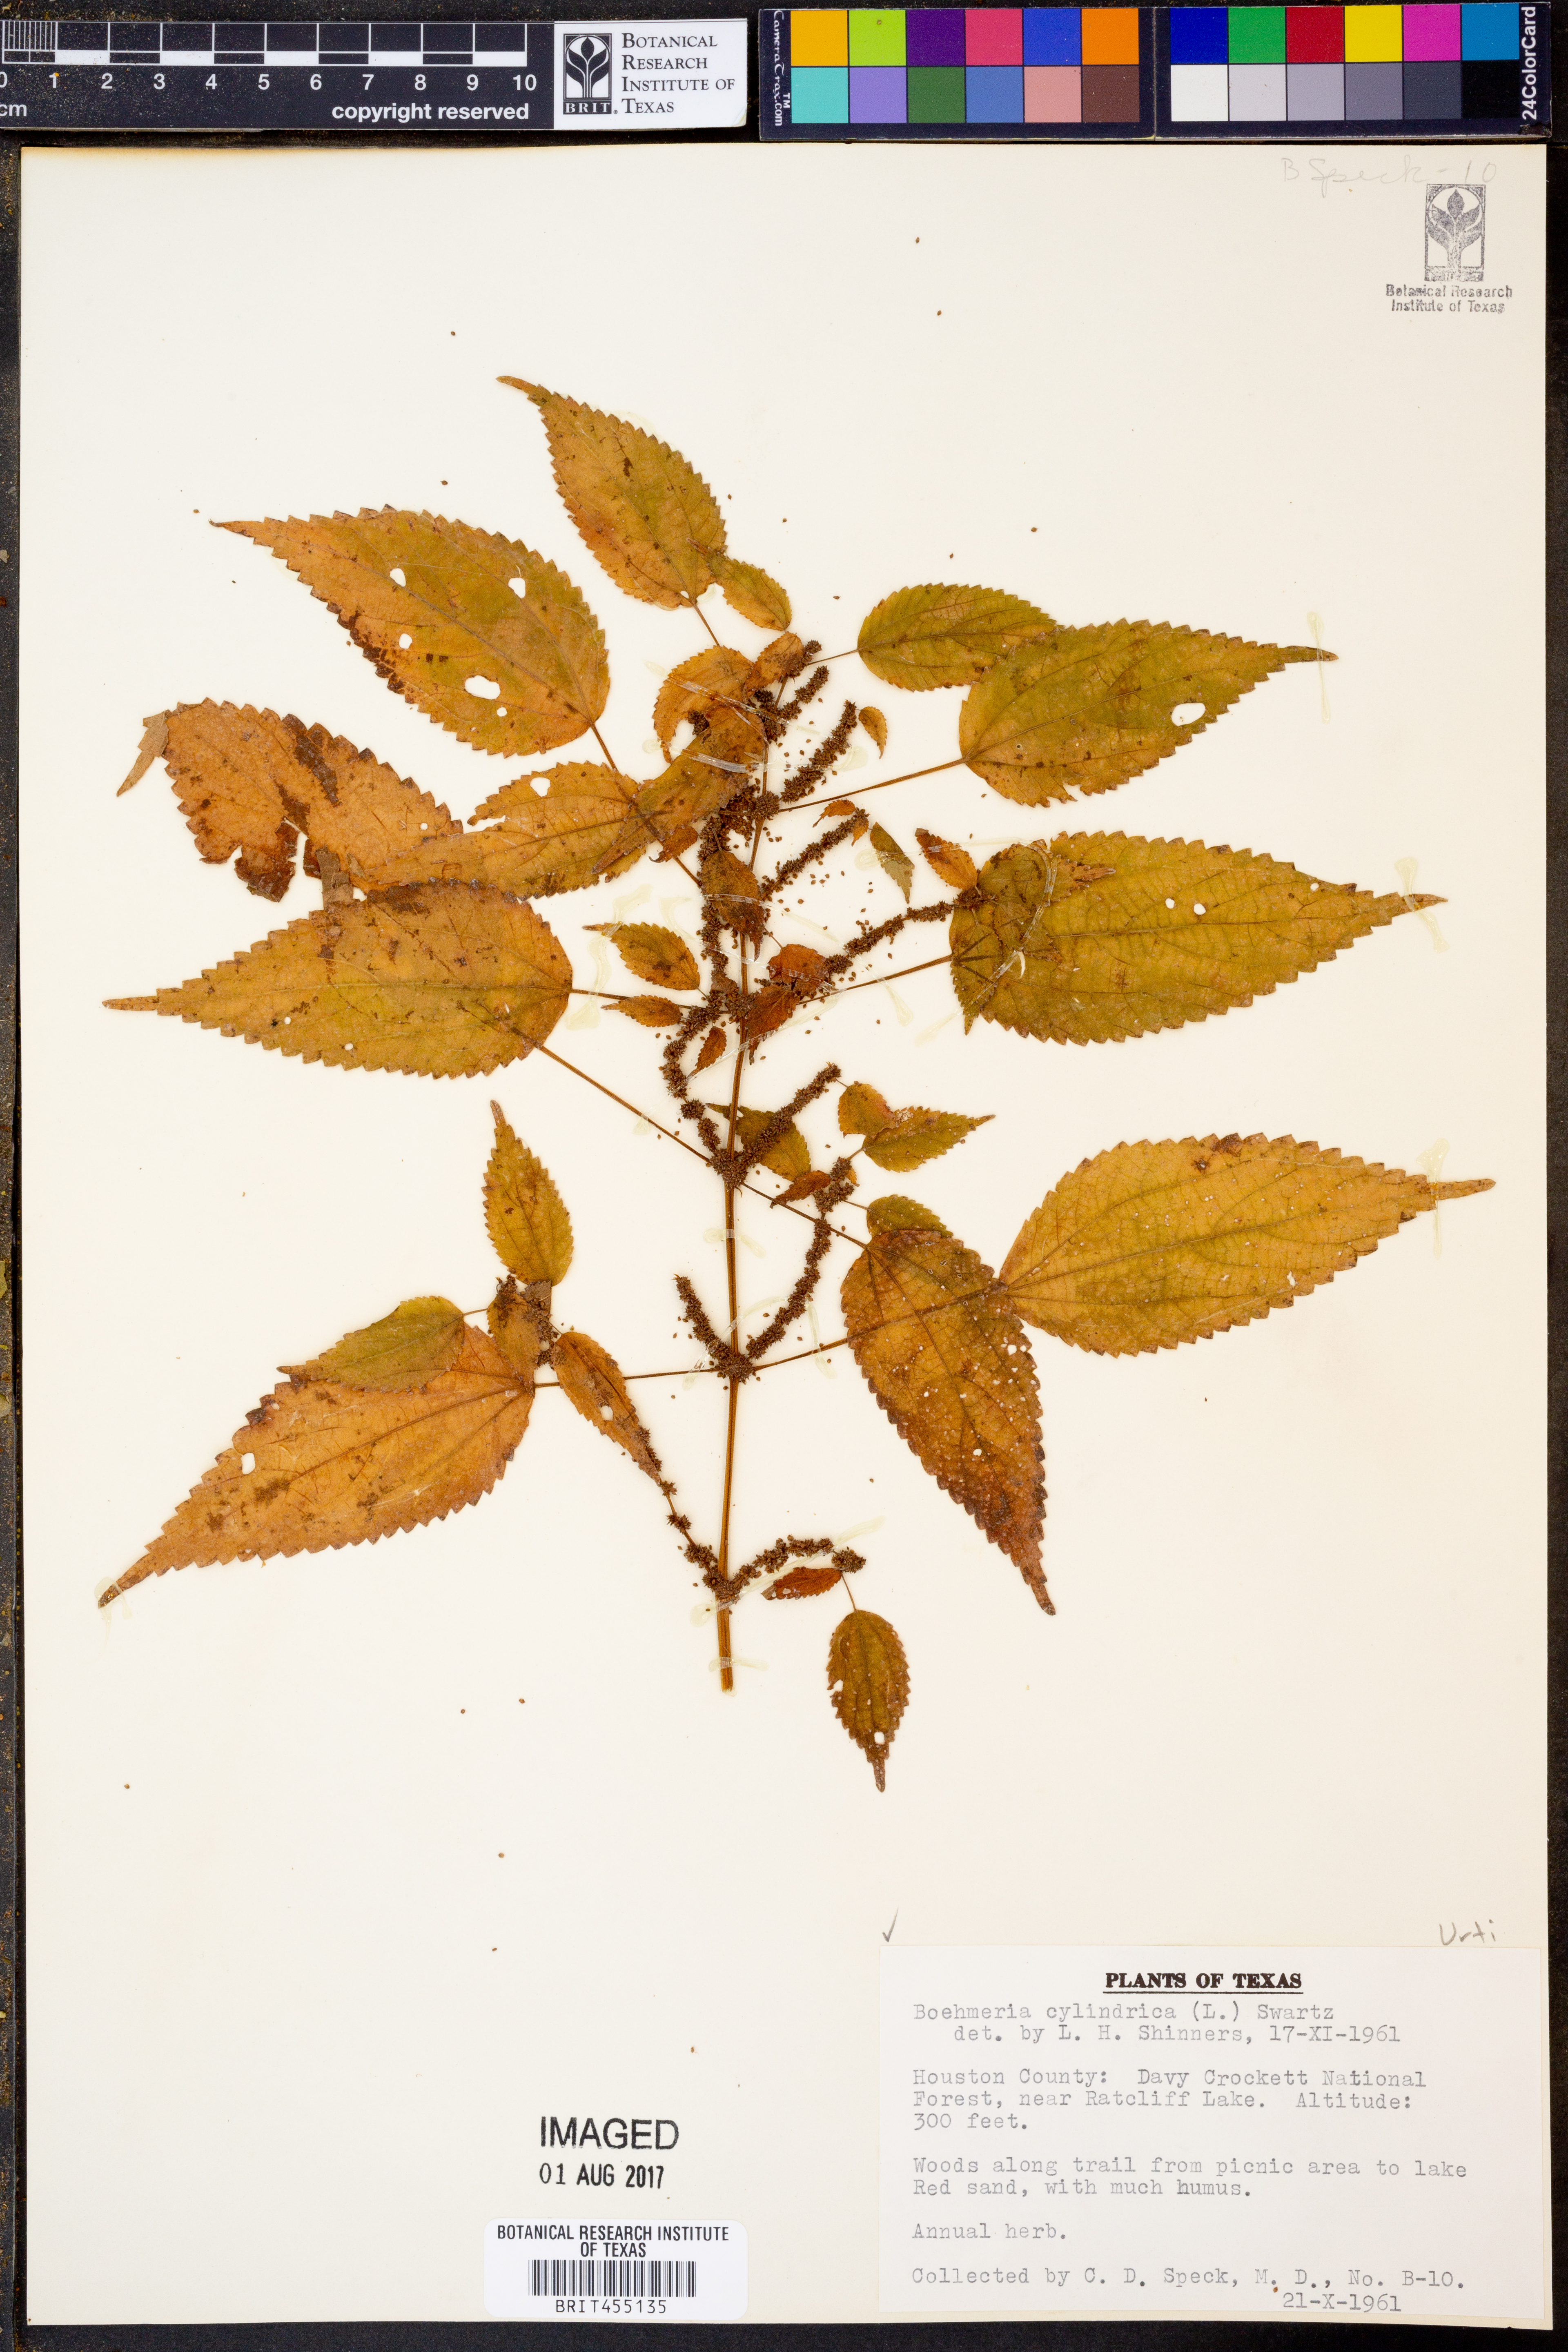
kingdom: Plantae
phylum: Tracheophyta
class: Magnoliopsida
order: Rosales
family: Urticaceae
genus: Boehmeria
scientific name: Boehmeria cylindrica
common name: Bog-hemp
